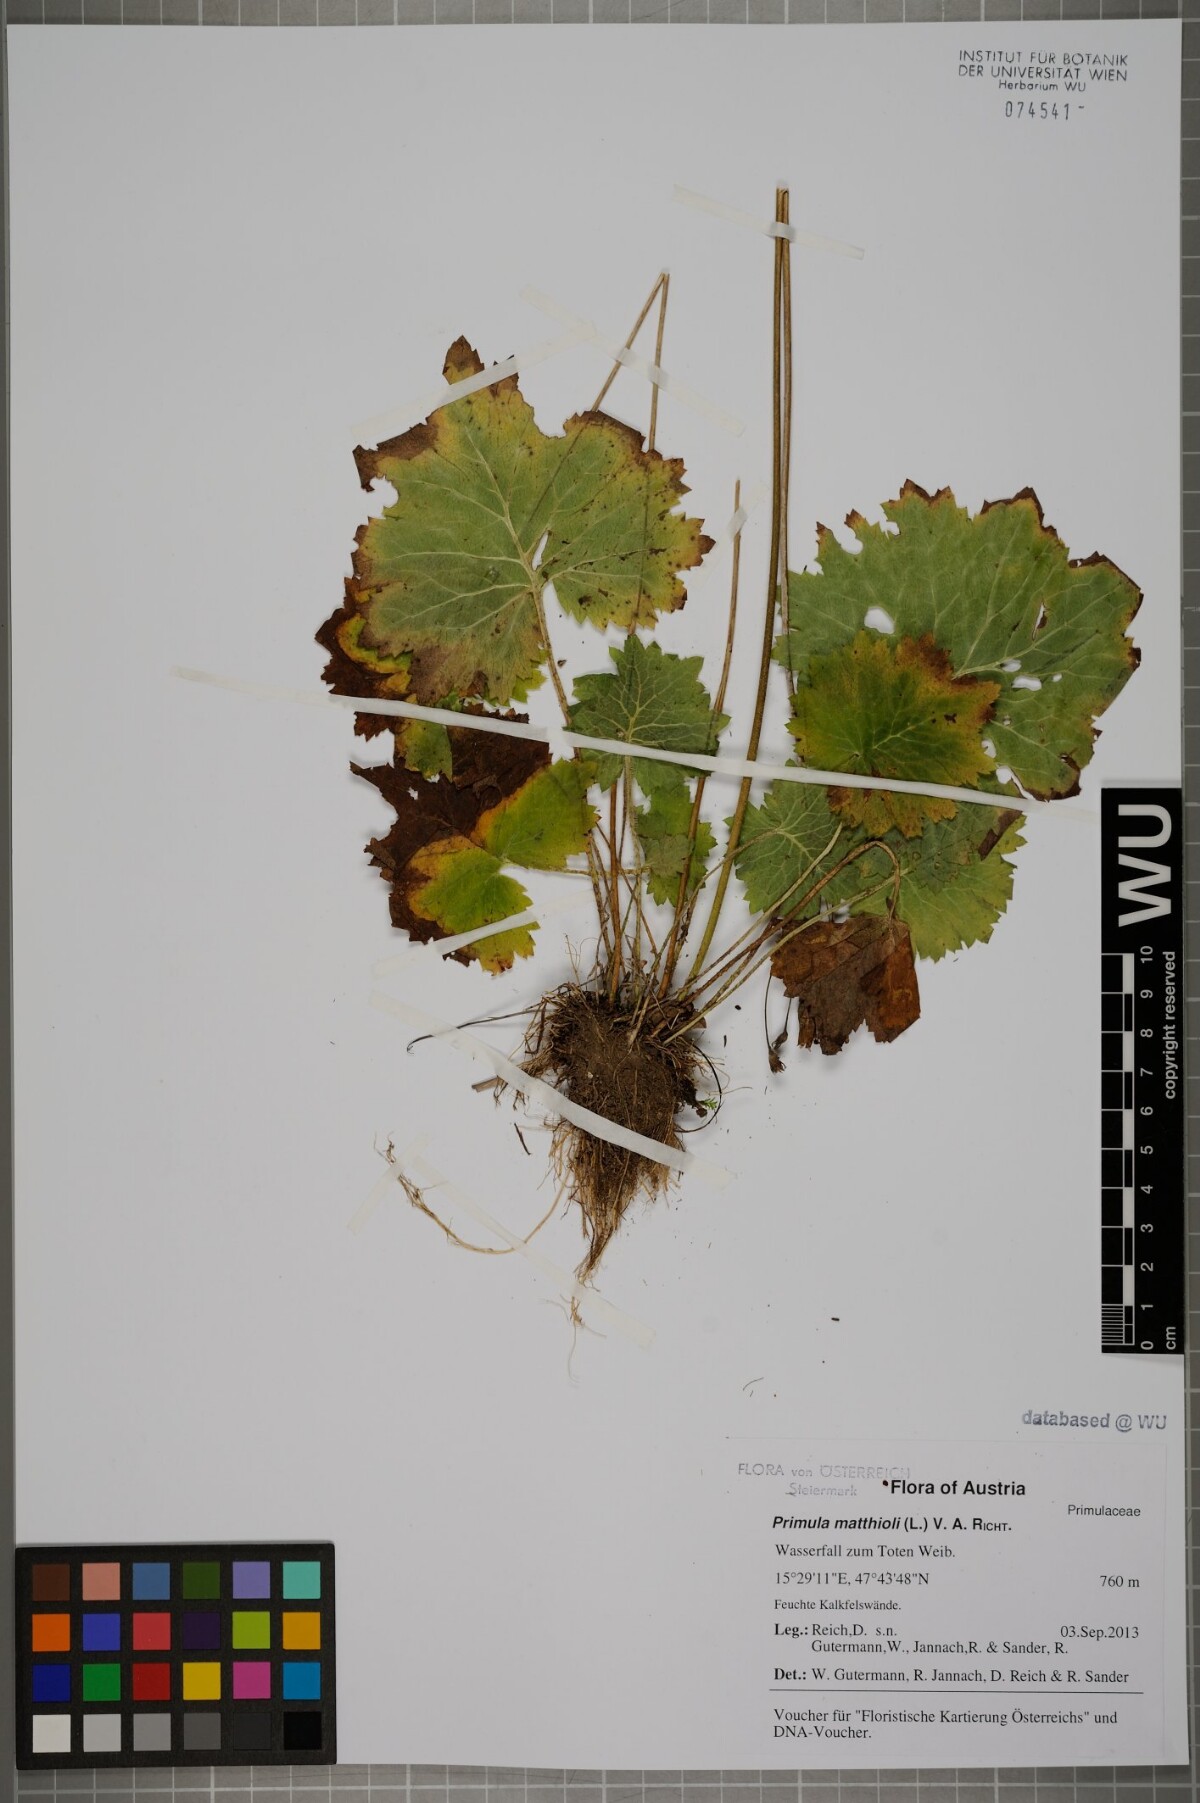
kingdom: Plantae
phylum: Tracheophyta
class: Magnoliopsida
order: Ericales
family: Primulaceae
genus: Primula
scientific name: Primula matthioli
